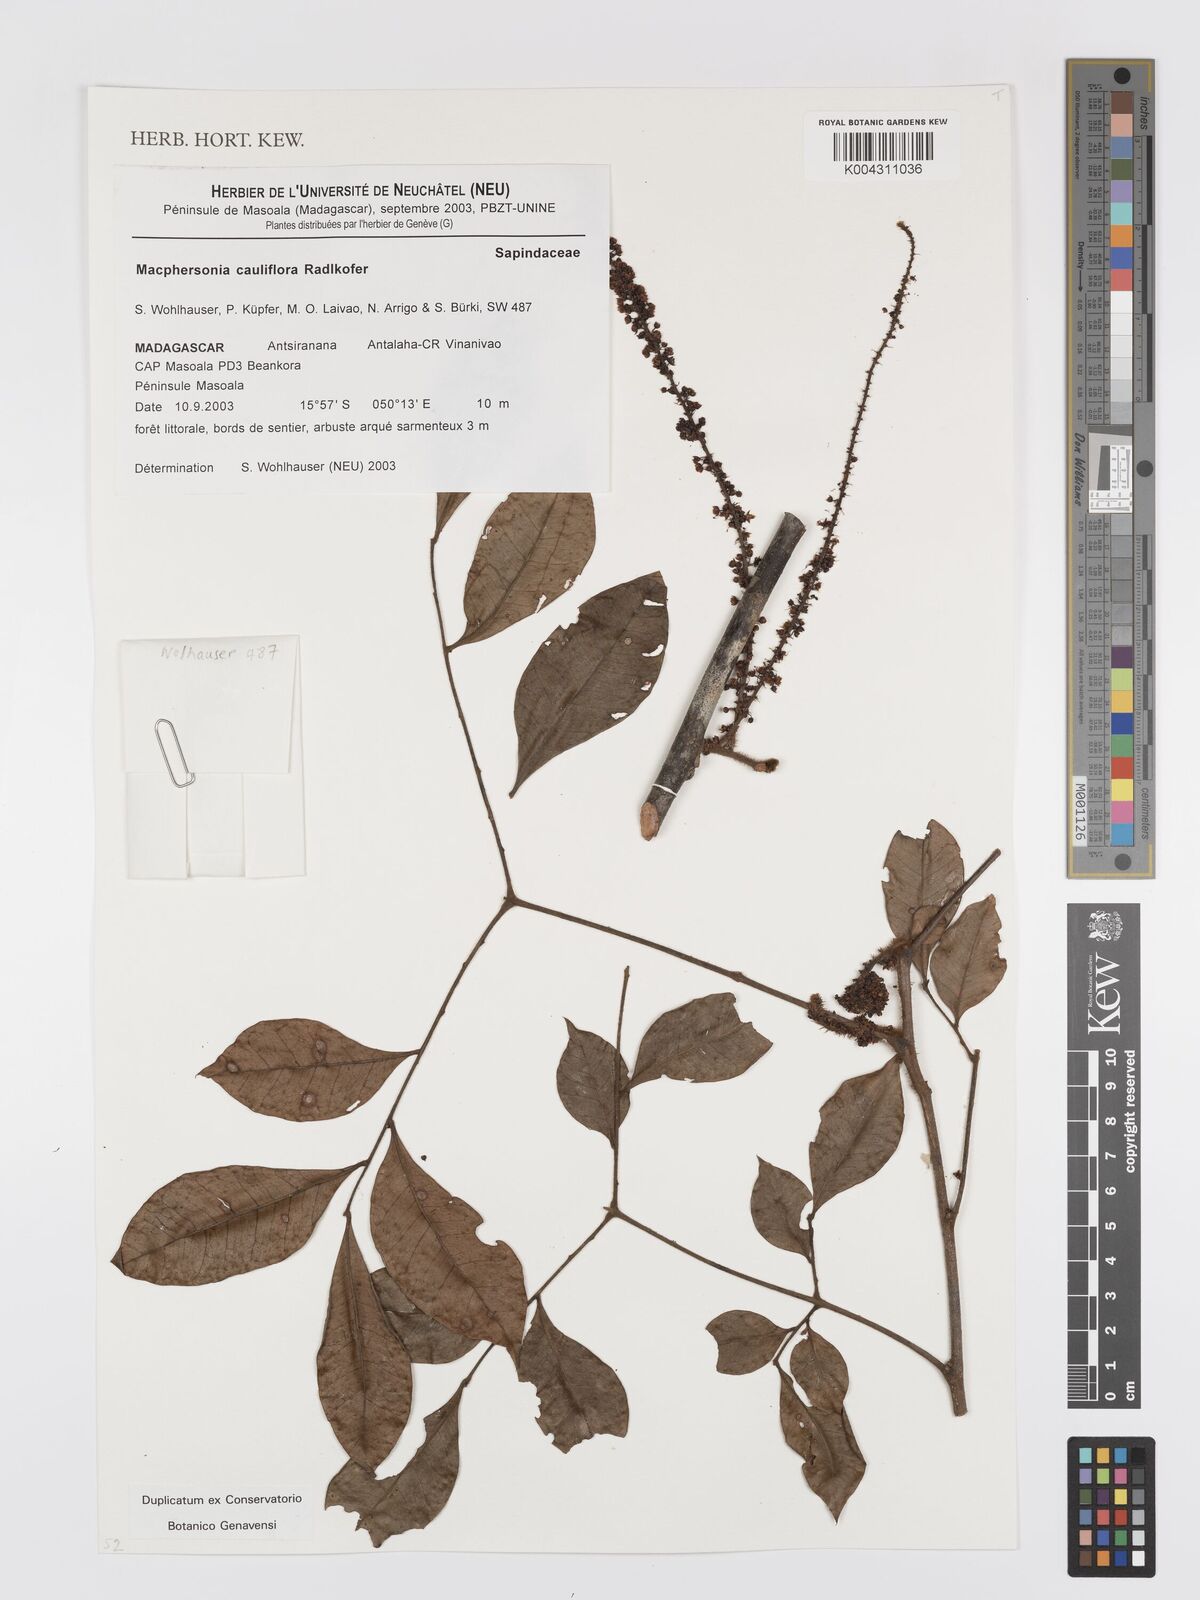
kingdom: Plantae
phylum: Tracheophyta
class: Magnoliopsida
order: Sapindales
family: Sapindaceae
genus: Macphersonia
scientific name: Macphersonia cauliflora
